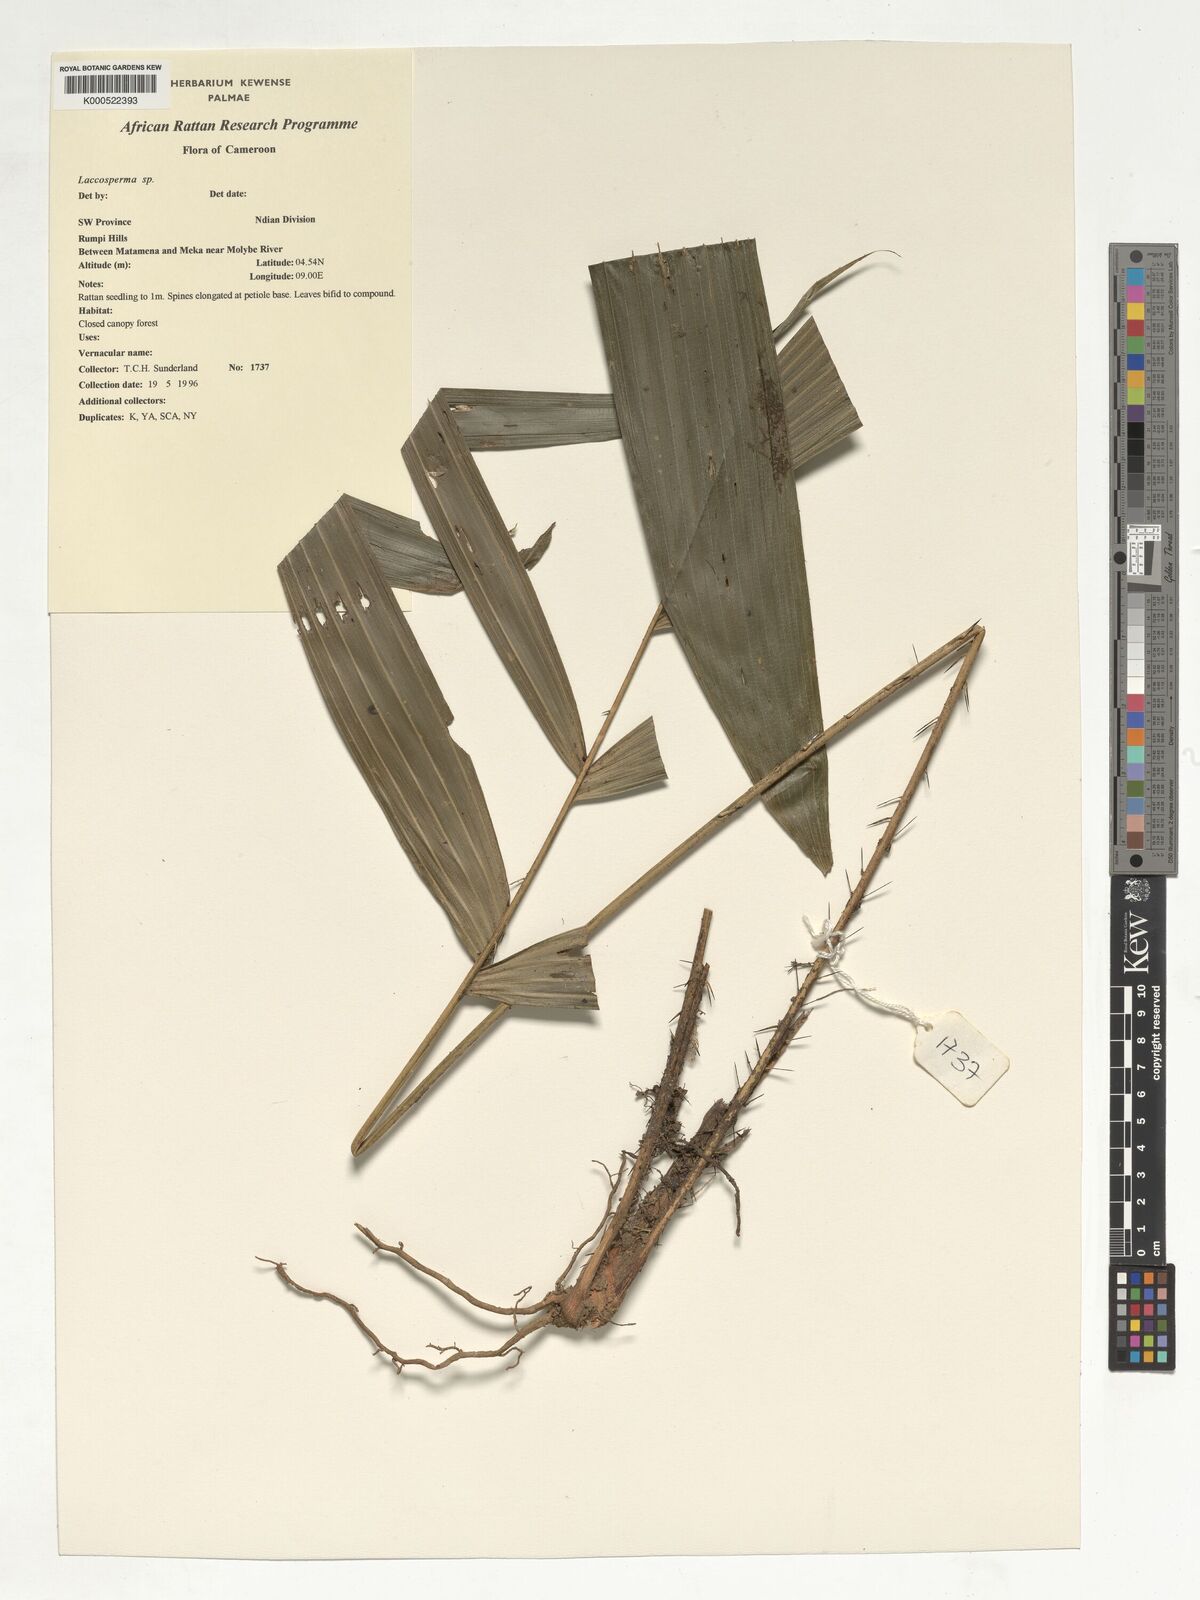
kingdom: Plantae
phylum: Tracheophyta
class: Liliopsida
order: Arecales
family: Arecaceae
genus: Laccosperma
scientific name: Laccosperma
